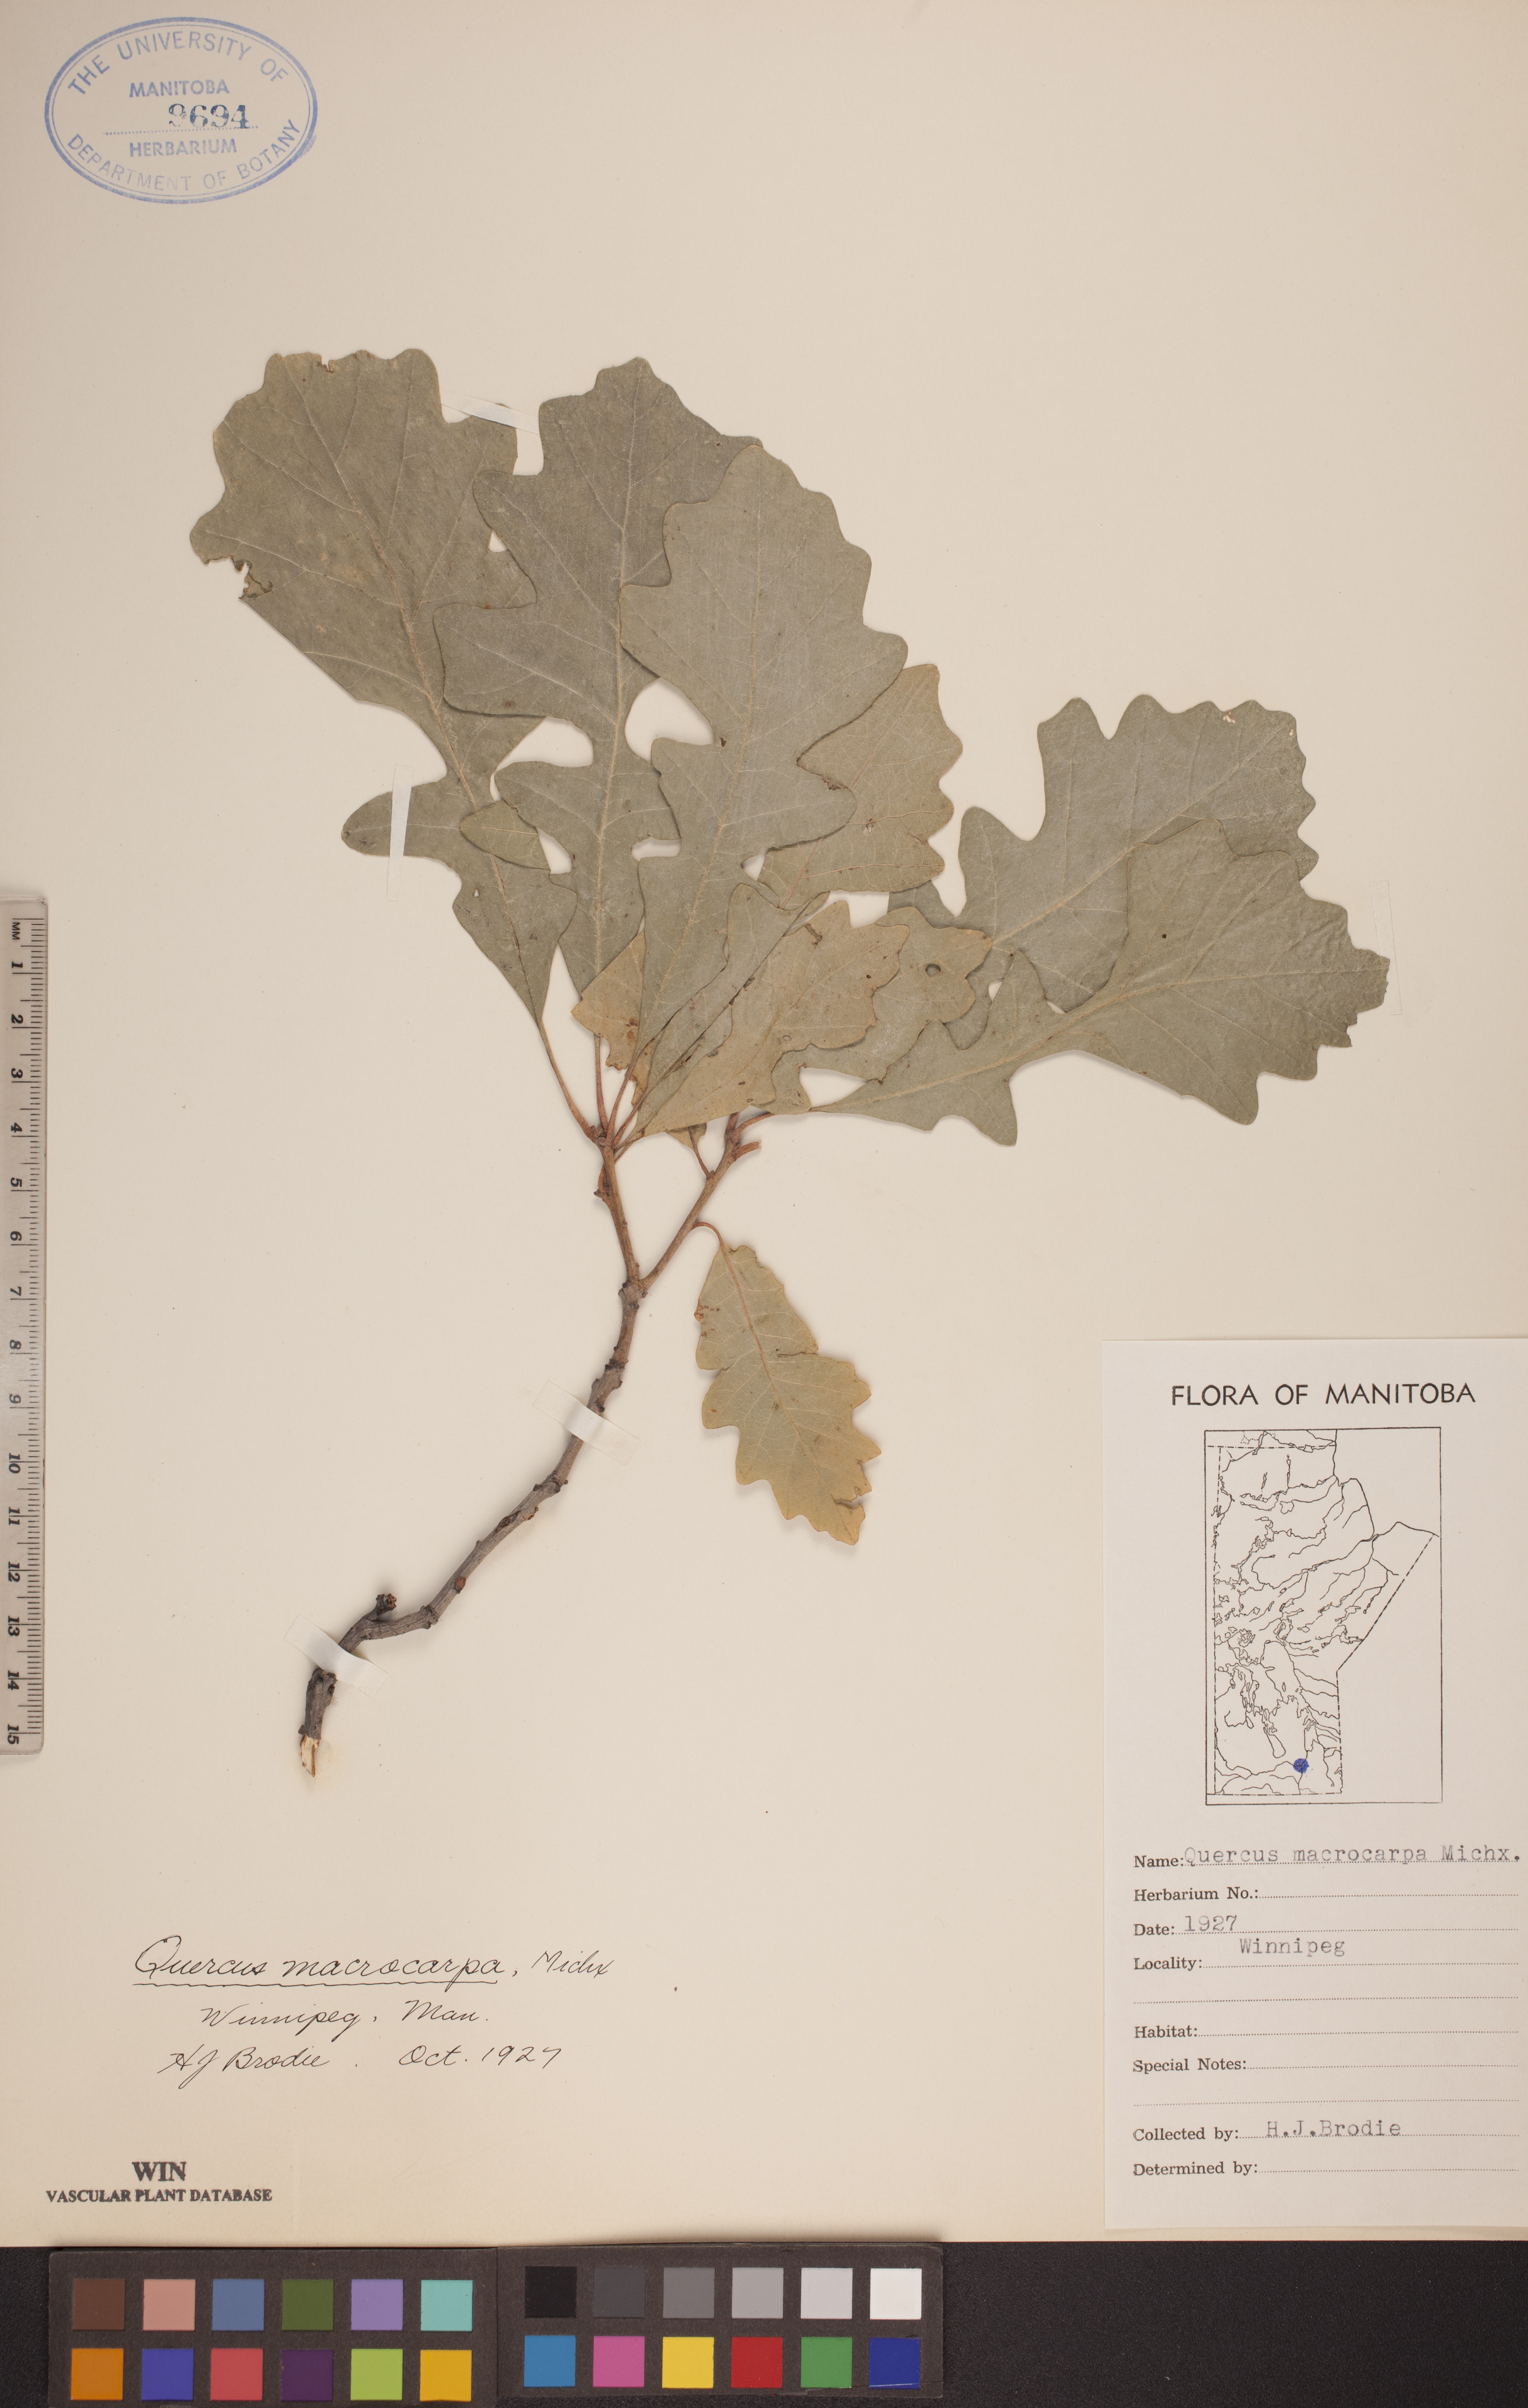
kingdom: Plantae
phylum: Tracheophyta
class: Magnoliopsida
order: Fagales
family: Fagaceae
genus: Quercus
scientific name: Quercus macrocarpa
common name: Bur oak
